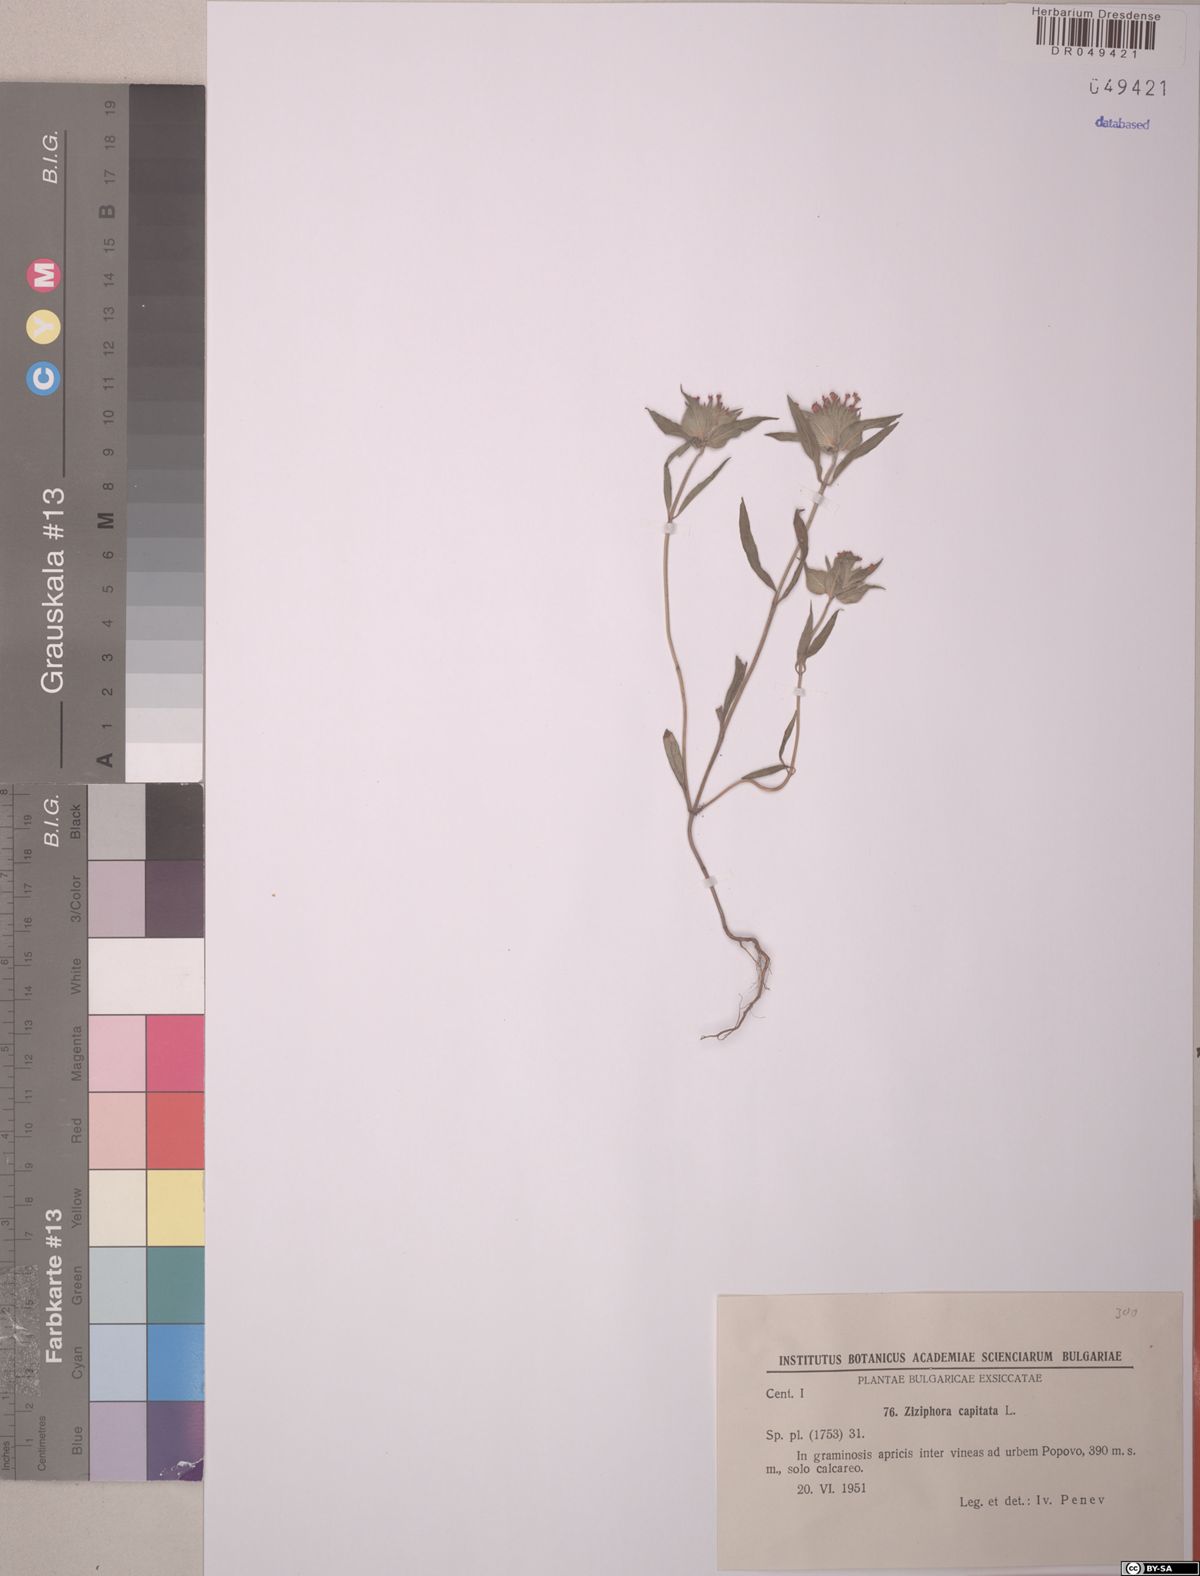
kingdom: Plantae
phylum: Tracheophyta
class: Magnoliopsida
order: Lamiales
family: Lamiaceae
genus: Ziziphora
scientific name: Ziziphora capitata
